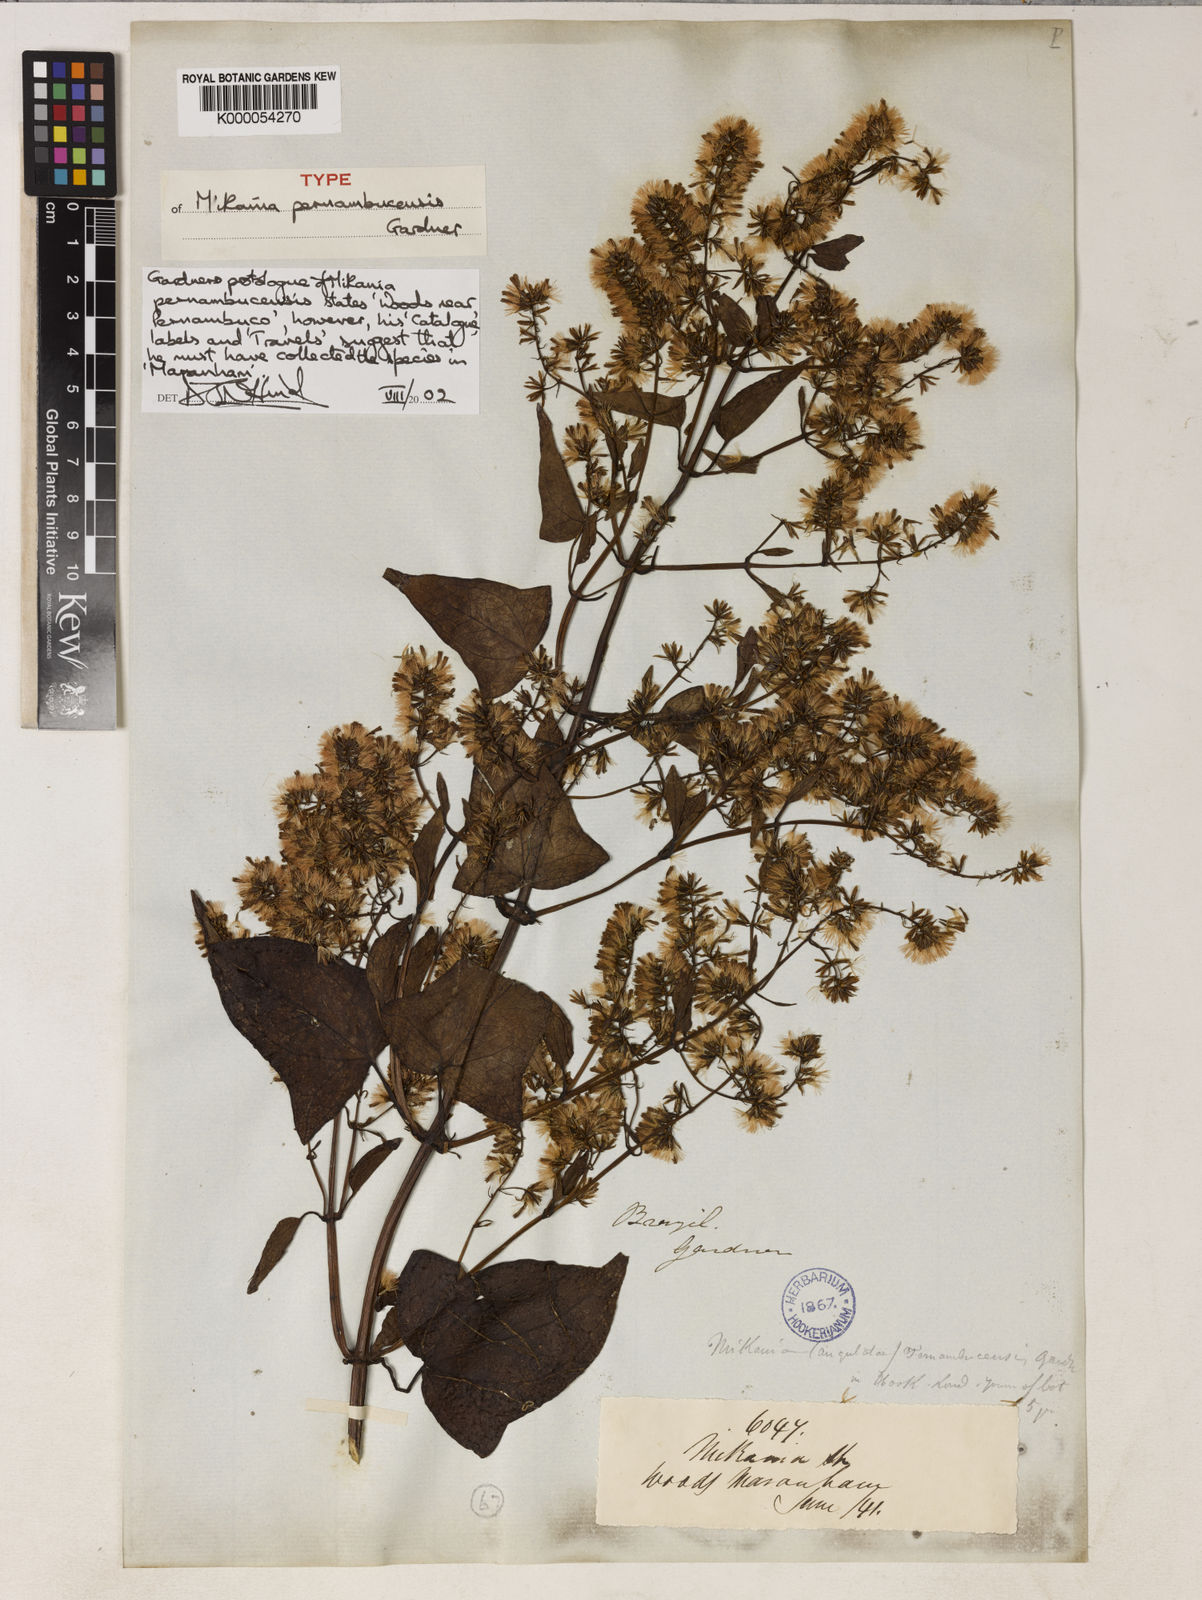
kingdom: Plantae
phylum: Tracheophyta
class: Magnoliopsida
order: Asterales
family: Asteraceae
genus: Mikania
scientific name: Mikania pernambucensis
